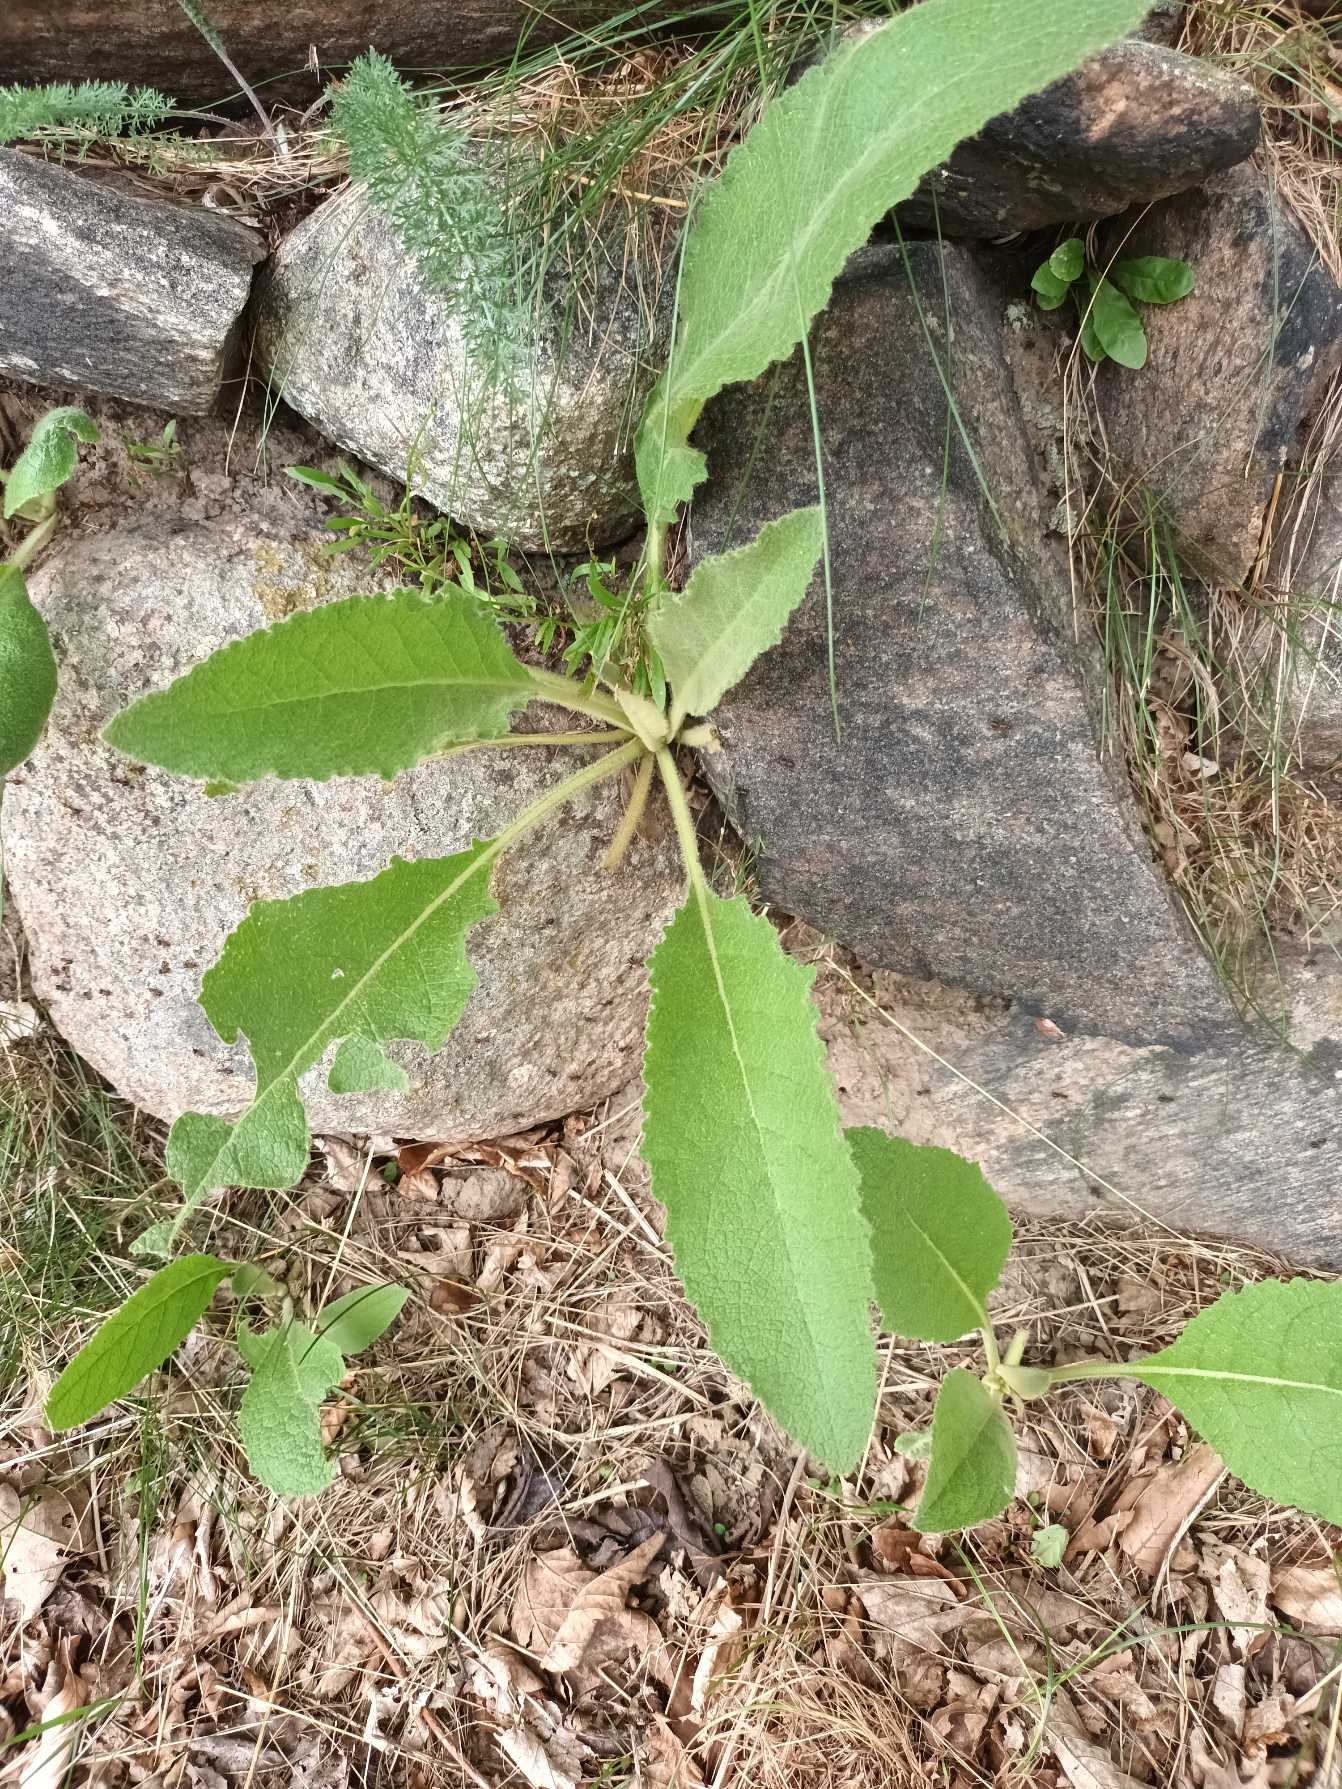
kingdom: Plantae
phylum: Tracheophyta
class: Magnoliopsida
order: Lamiales
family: Scrophulariaceae
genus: Verbascum
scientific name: Verbascum phlomoides
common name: Hjertebladet kongelys
